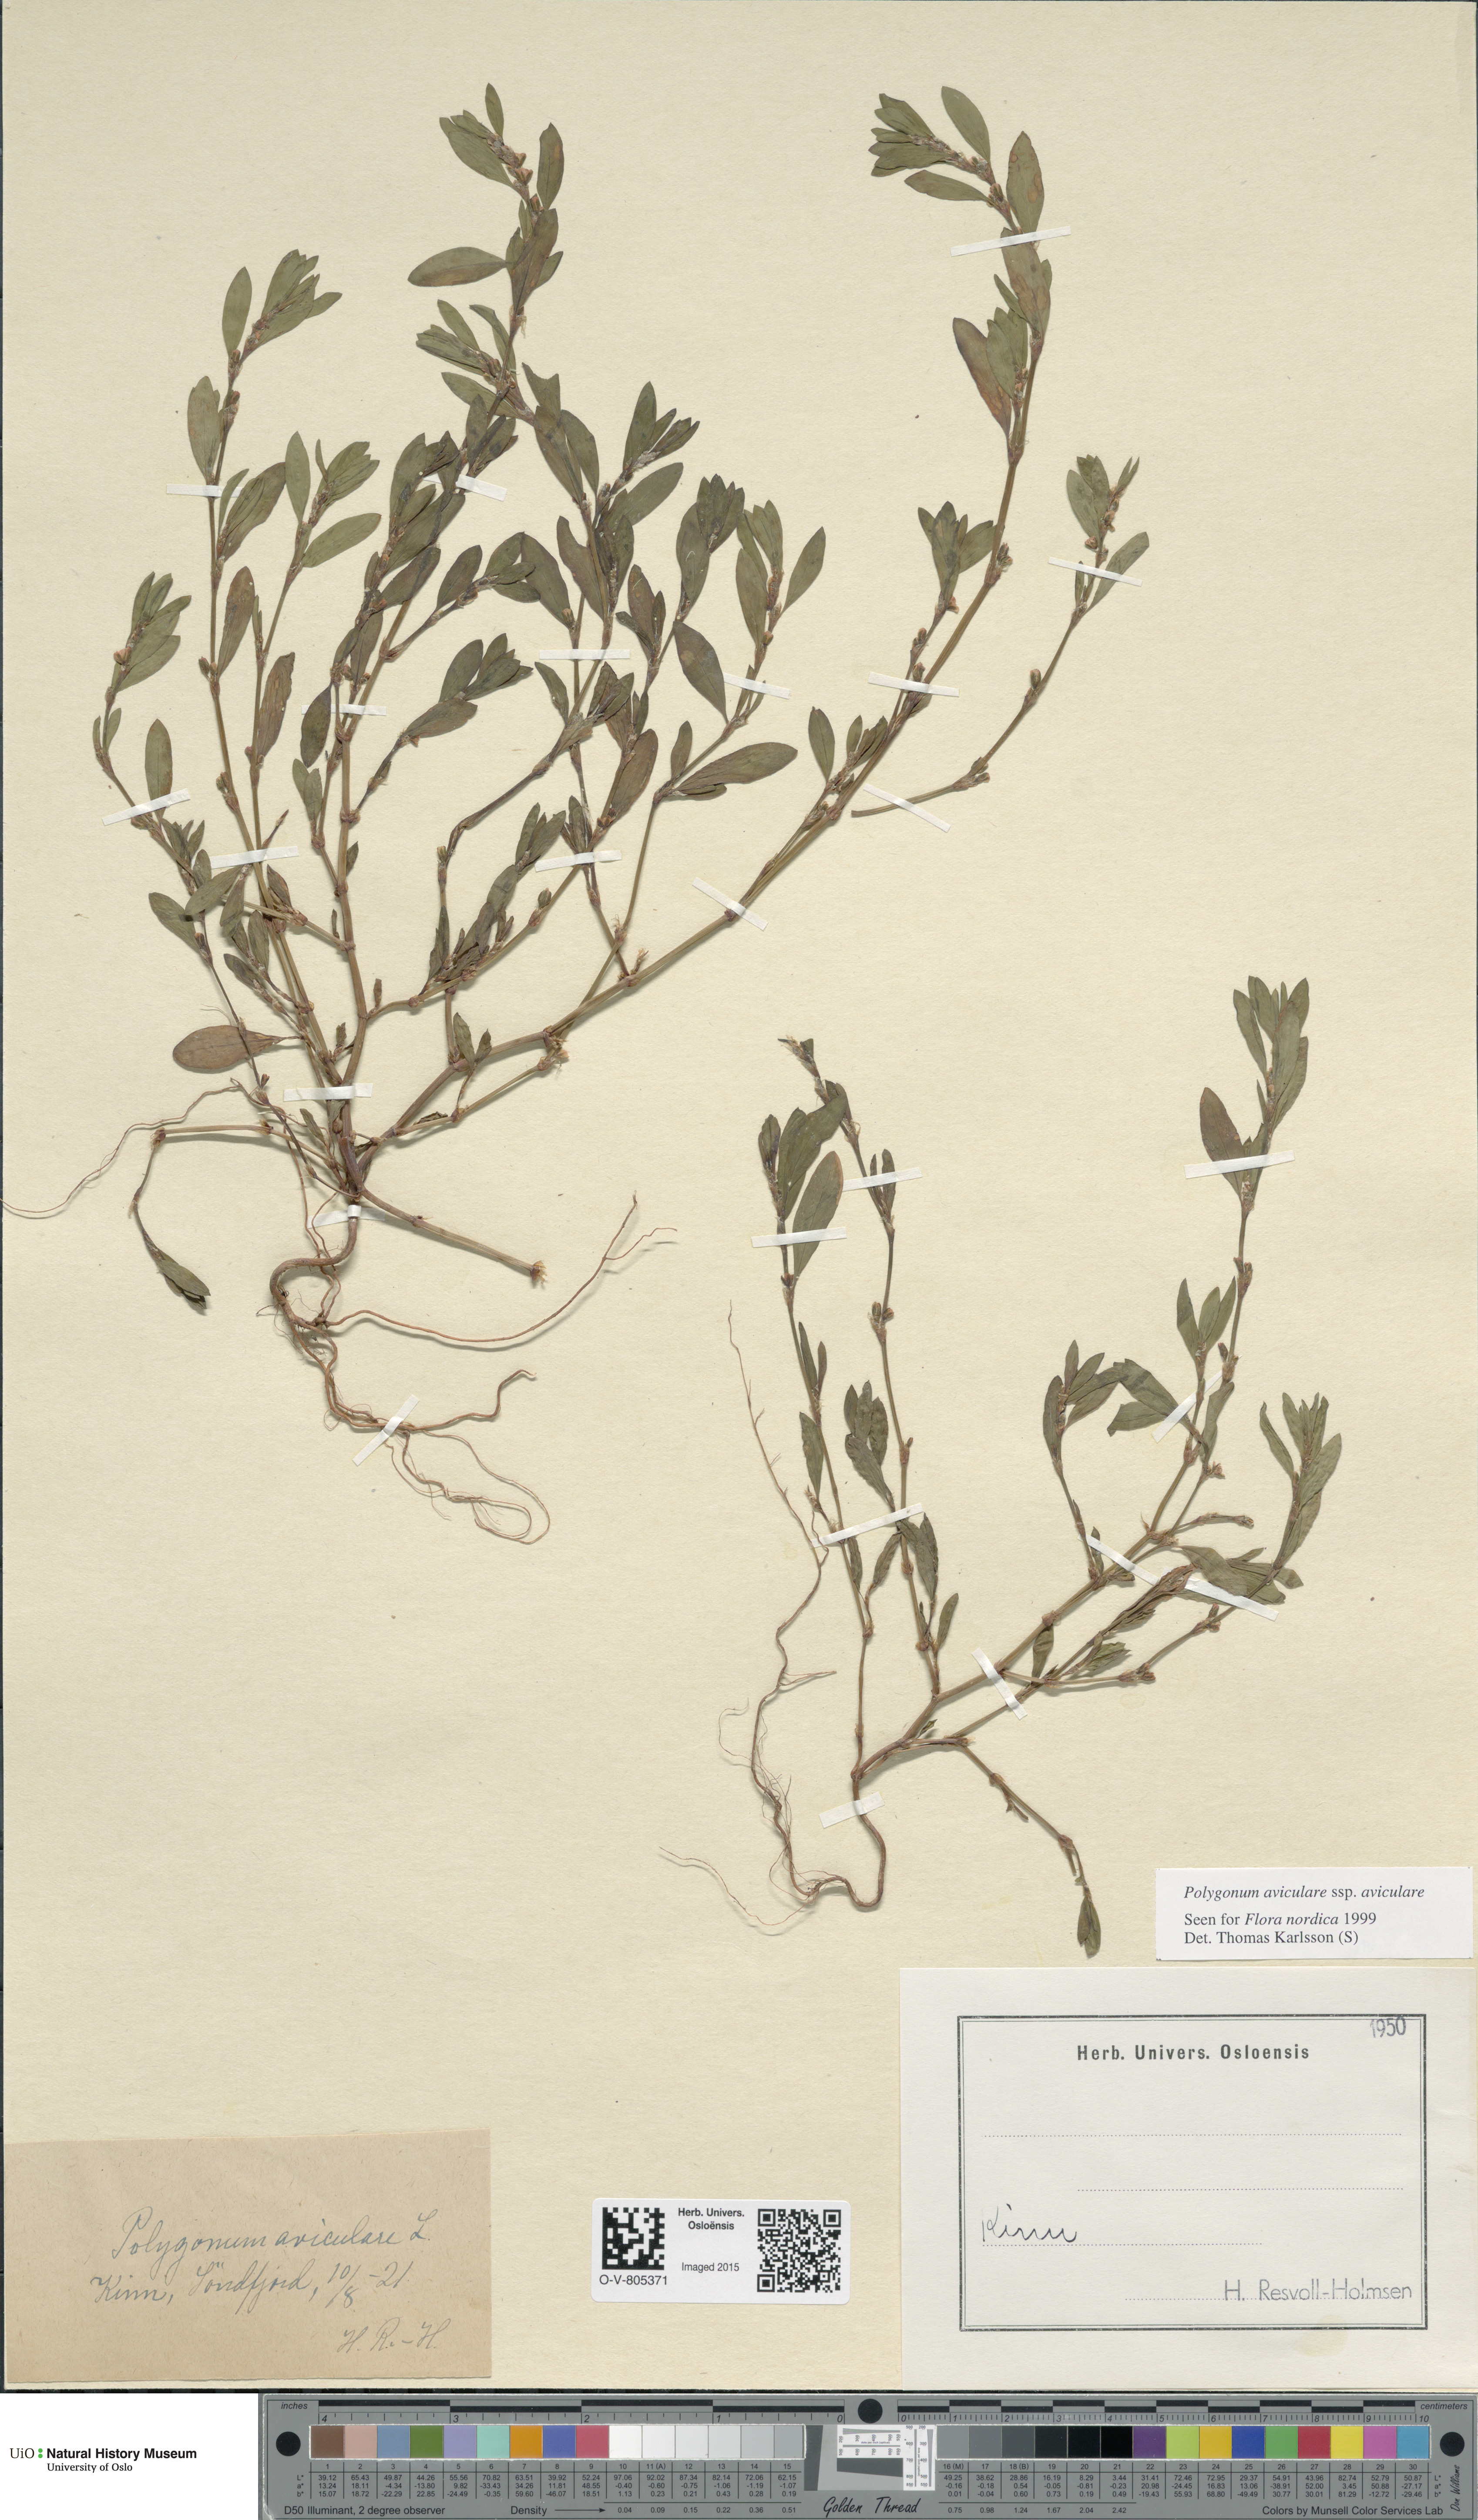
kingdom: Plantae
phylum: Tracheophyta
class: Magnoliopsida
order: Caryophyllales
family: Polygonaceae
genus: Polygonum
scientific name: Polygonum aviculare
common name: Prostrate knotweed
